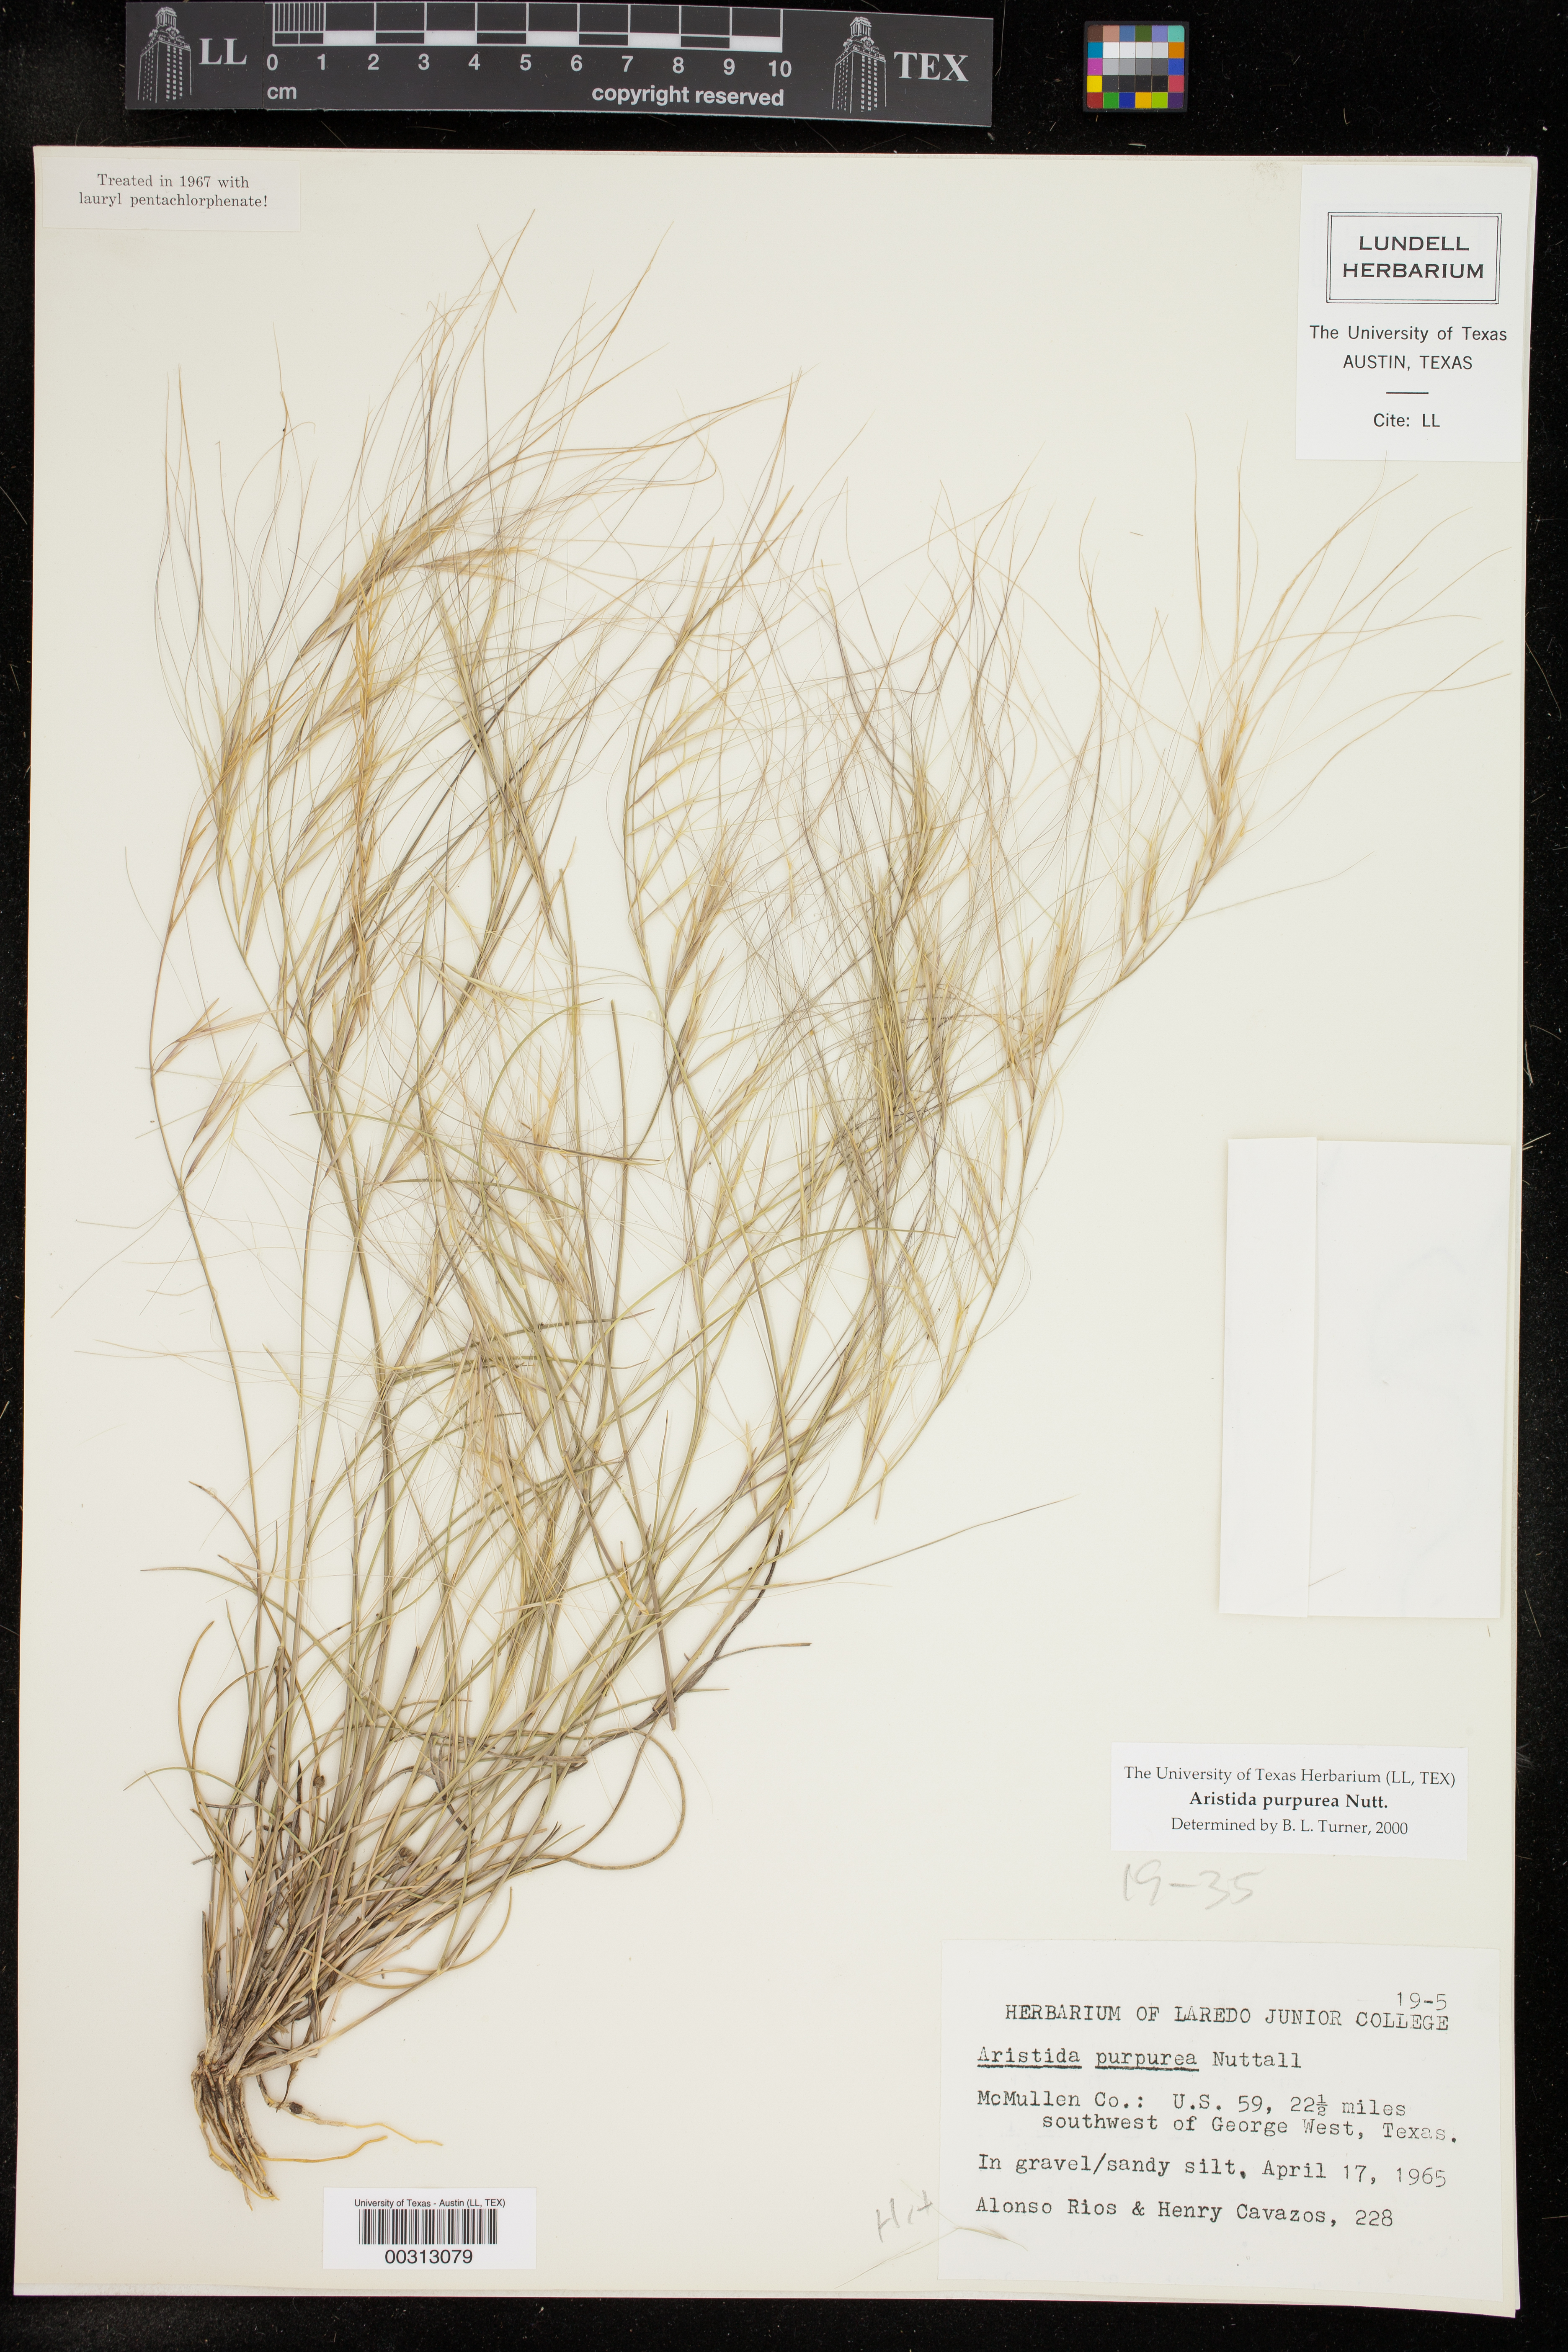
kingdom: Plantae
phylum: Tracheophyta
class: Liliopsida
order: Poales
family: Poaceae
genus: Aristida
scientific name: Aristida purpurea
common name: Purple threeawn
